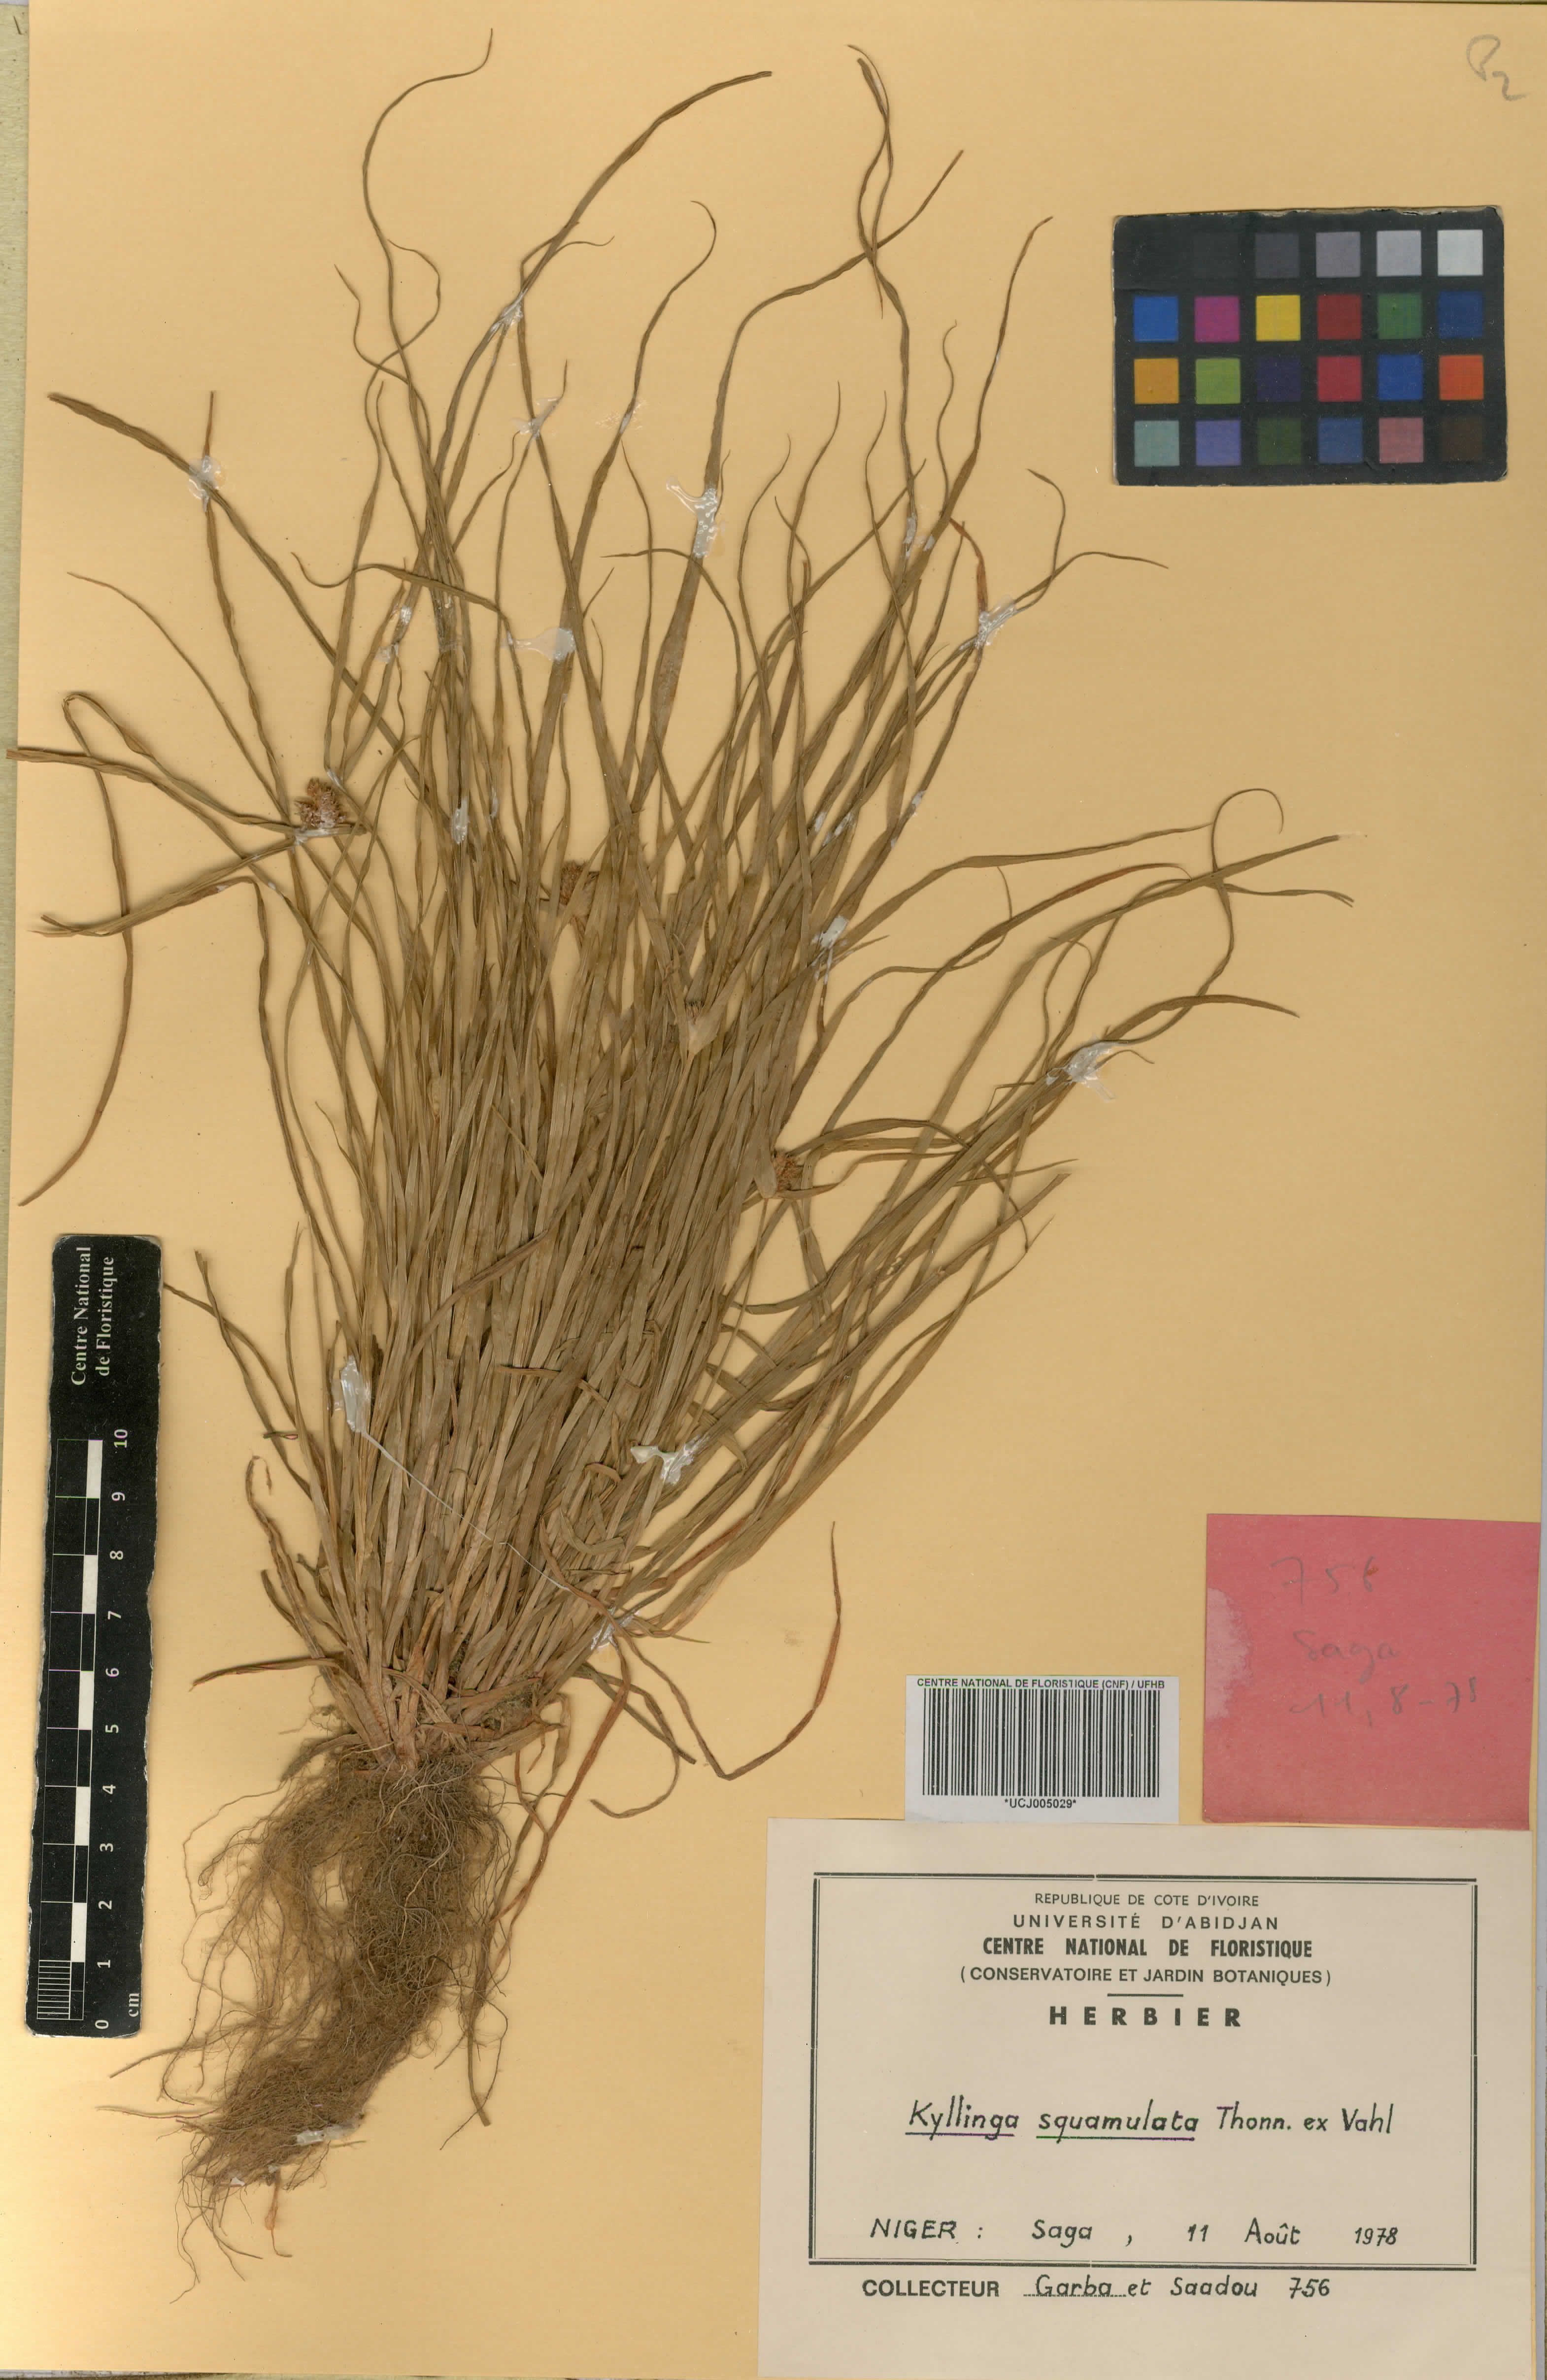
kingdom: Plantae
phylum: Tracheophyta
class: Liliopsida
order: Poales
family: Cyperaceae
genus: Cyperus
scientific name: Cyperus metzii
